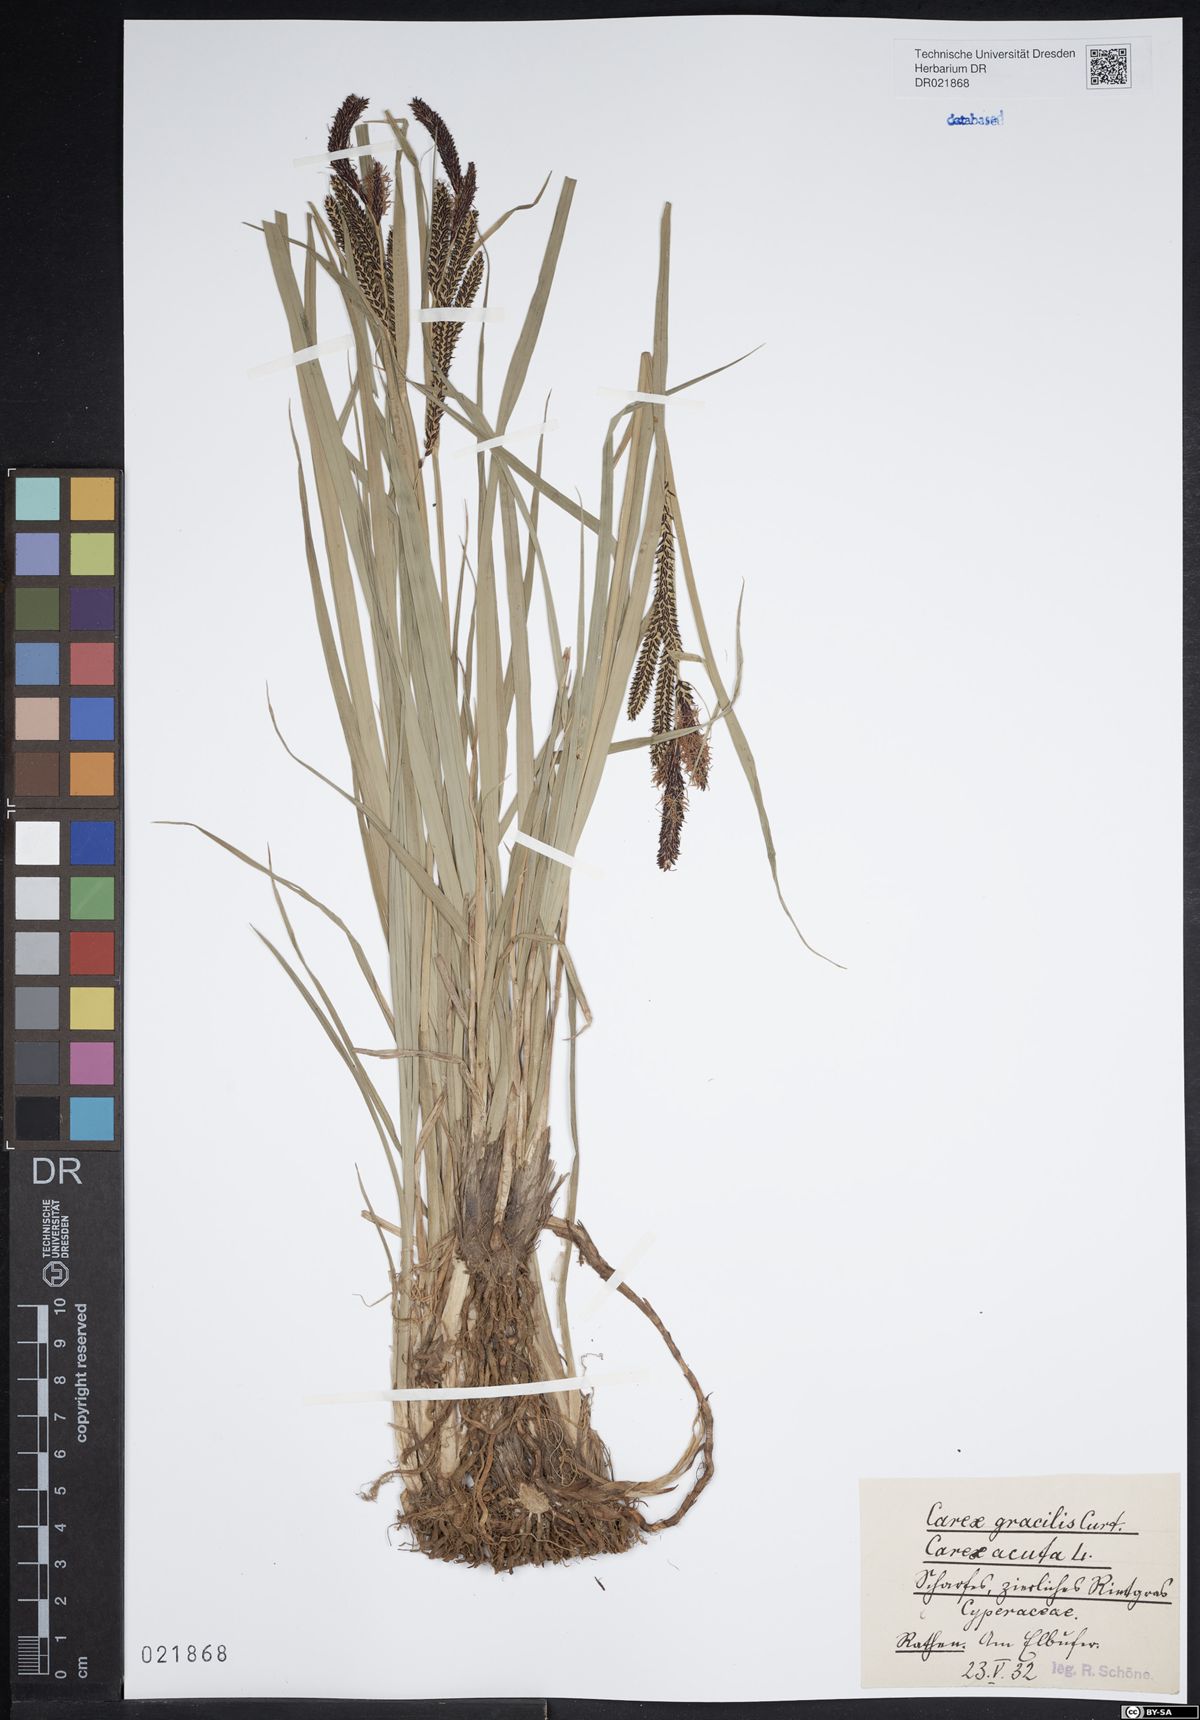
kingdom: Plantae
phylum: Tracheophyta
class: Liliopsida
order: Poales
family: Cyperaceae
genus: Carex
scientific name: Carex acuta
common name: Slender tufted-sedge
